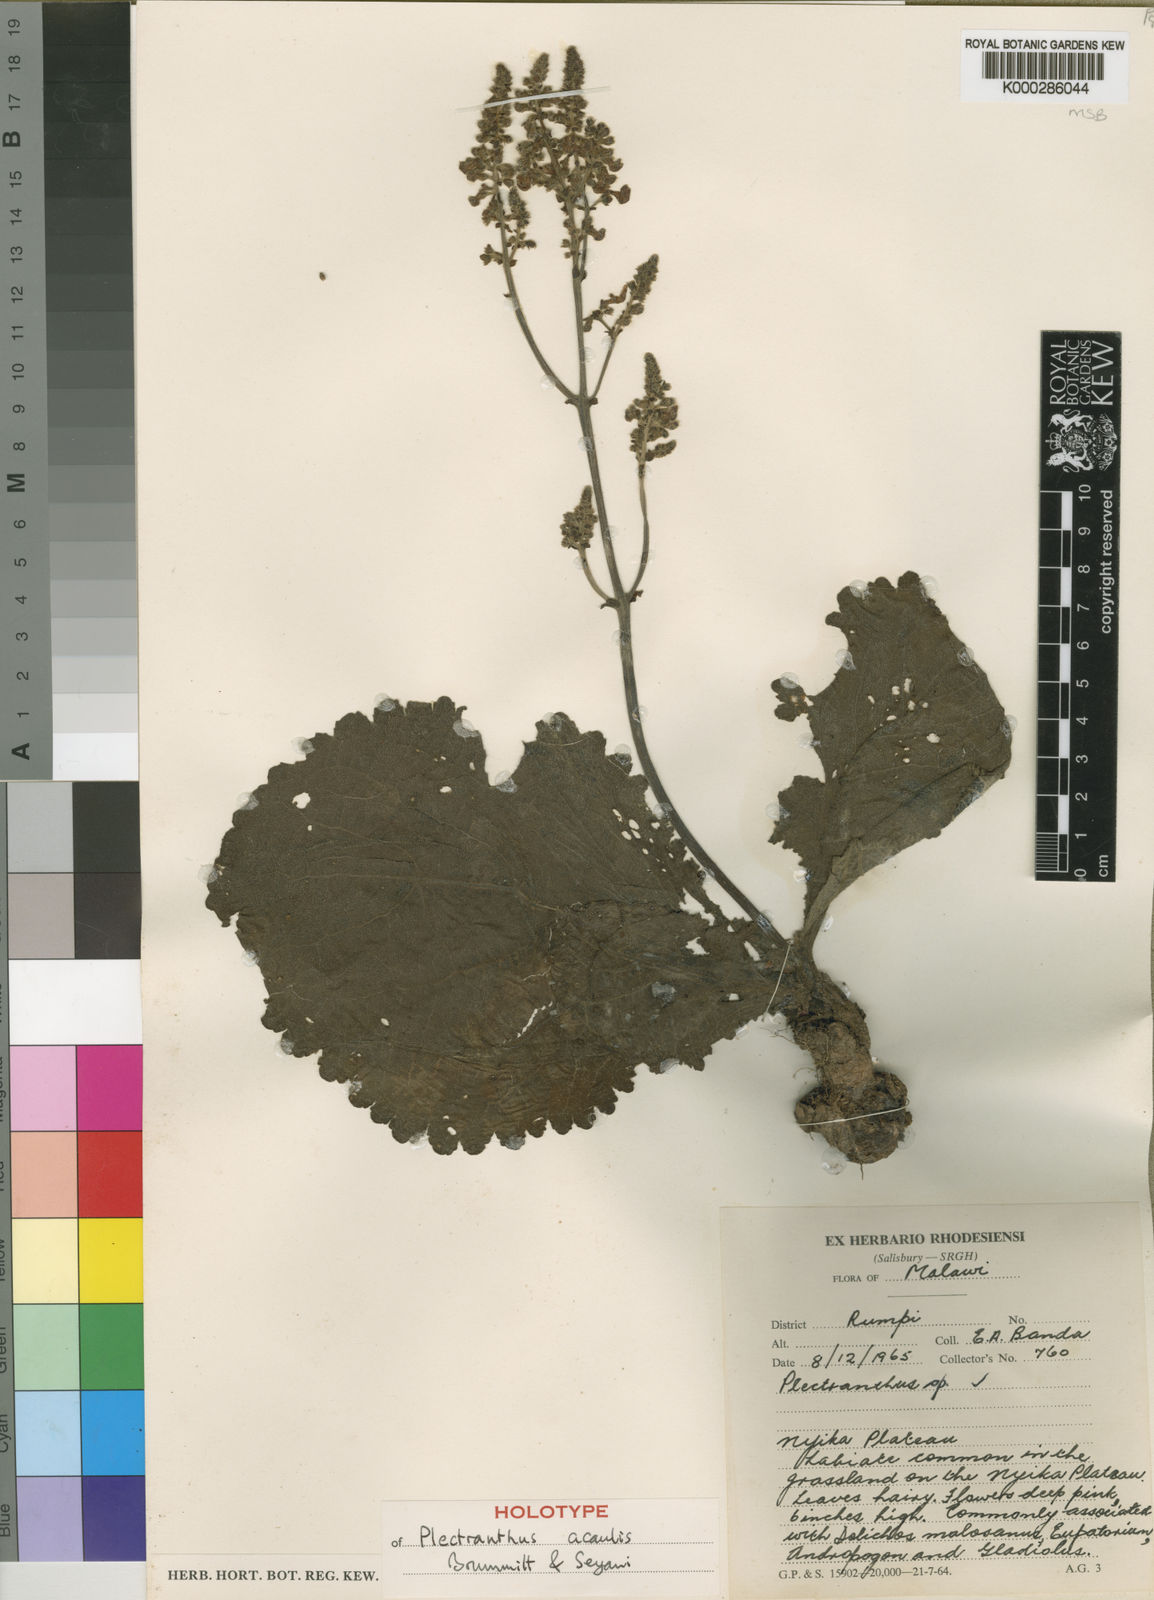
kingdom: Plantae
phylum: Tracheophyta
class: Magnoliopsida
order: Lamiales
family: Lamiaceae
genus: Equilabium
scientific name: Equilabium acaule
